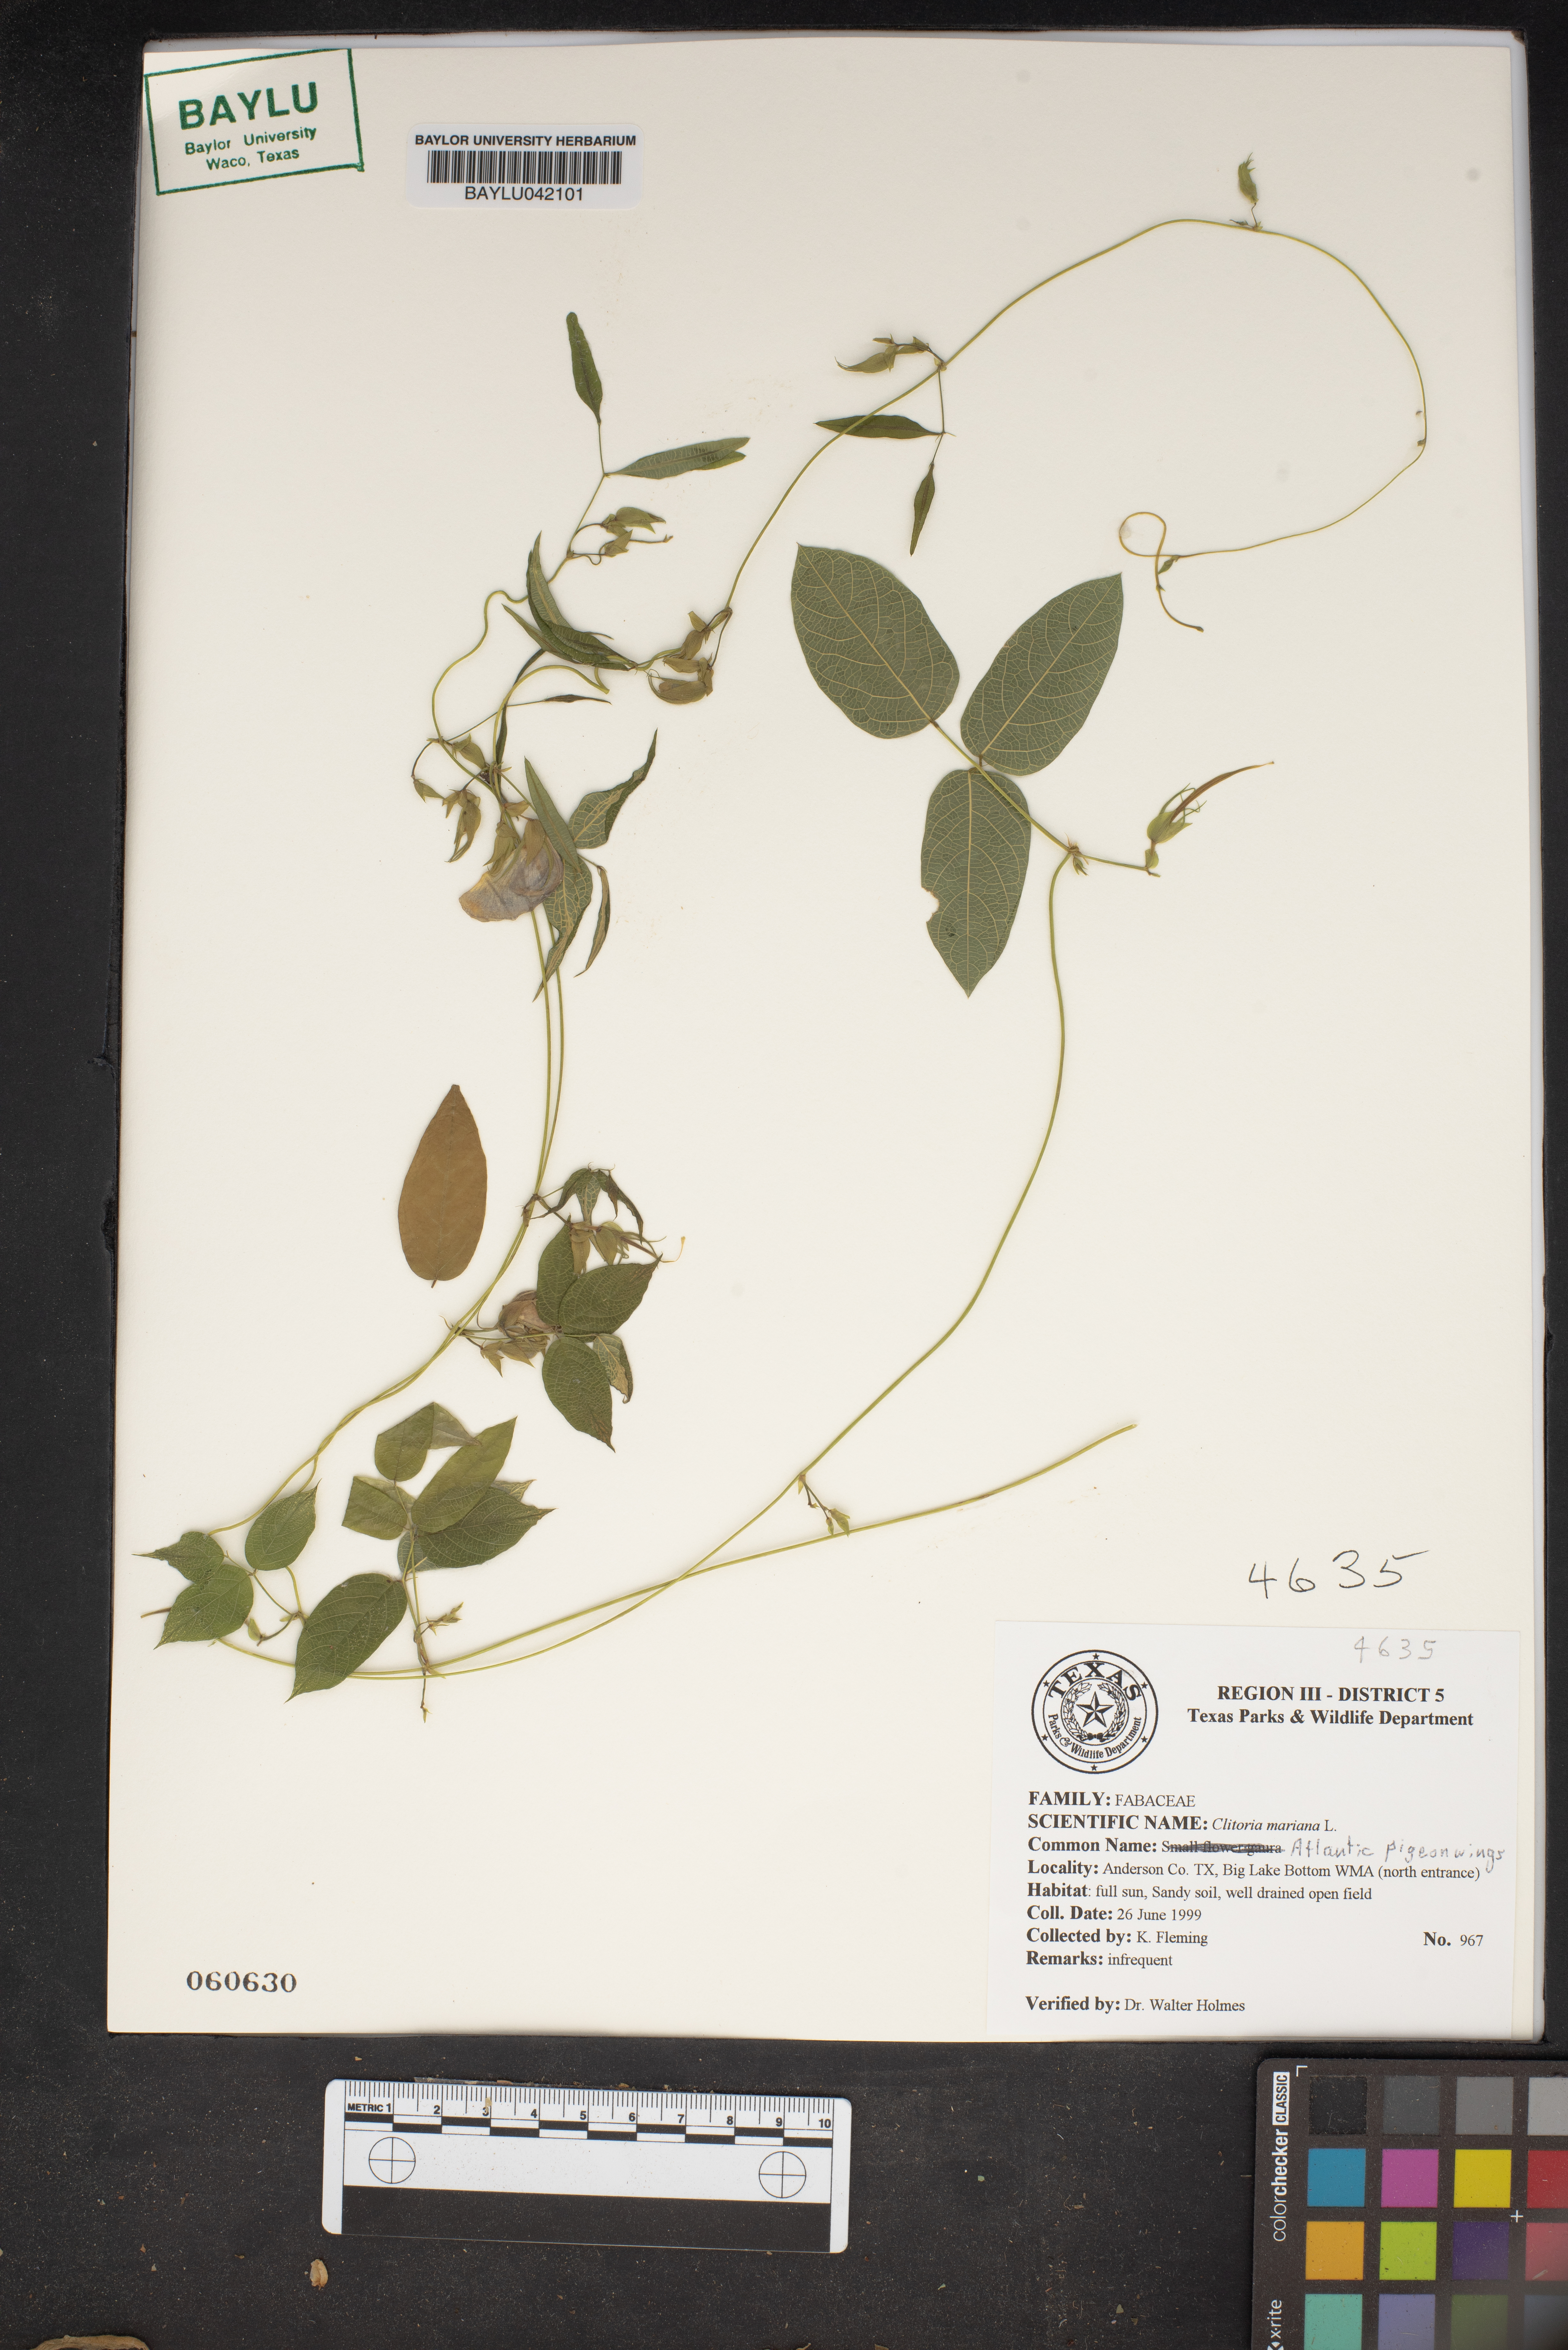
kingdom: Plantae
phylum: Tracheophyta
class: Magnoliopsida
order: Fabales
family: Fabaceae
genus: Clitoria
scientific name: Clitoria mariana
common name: Butterfly-pea
